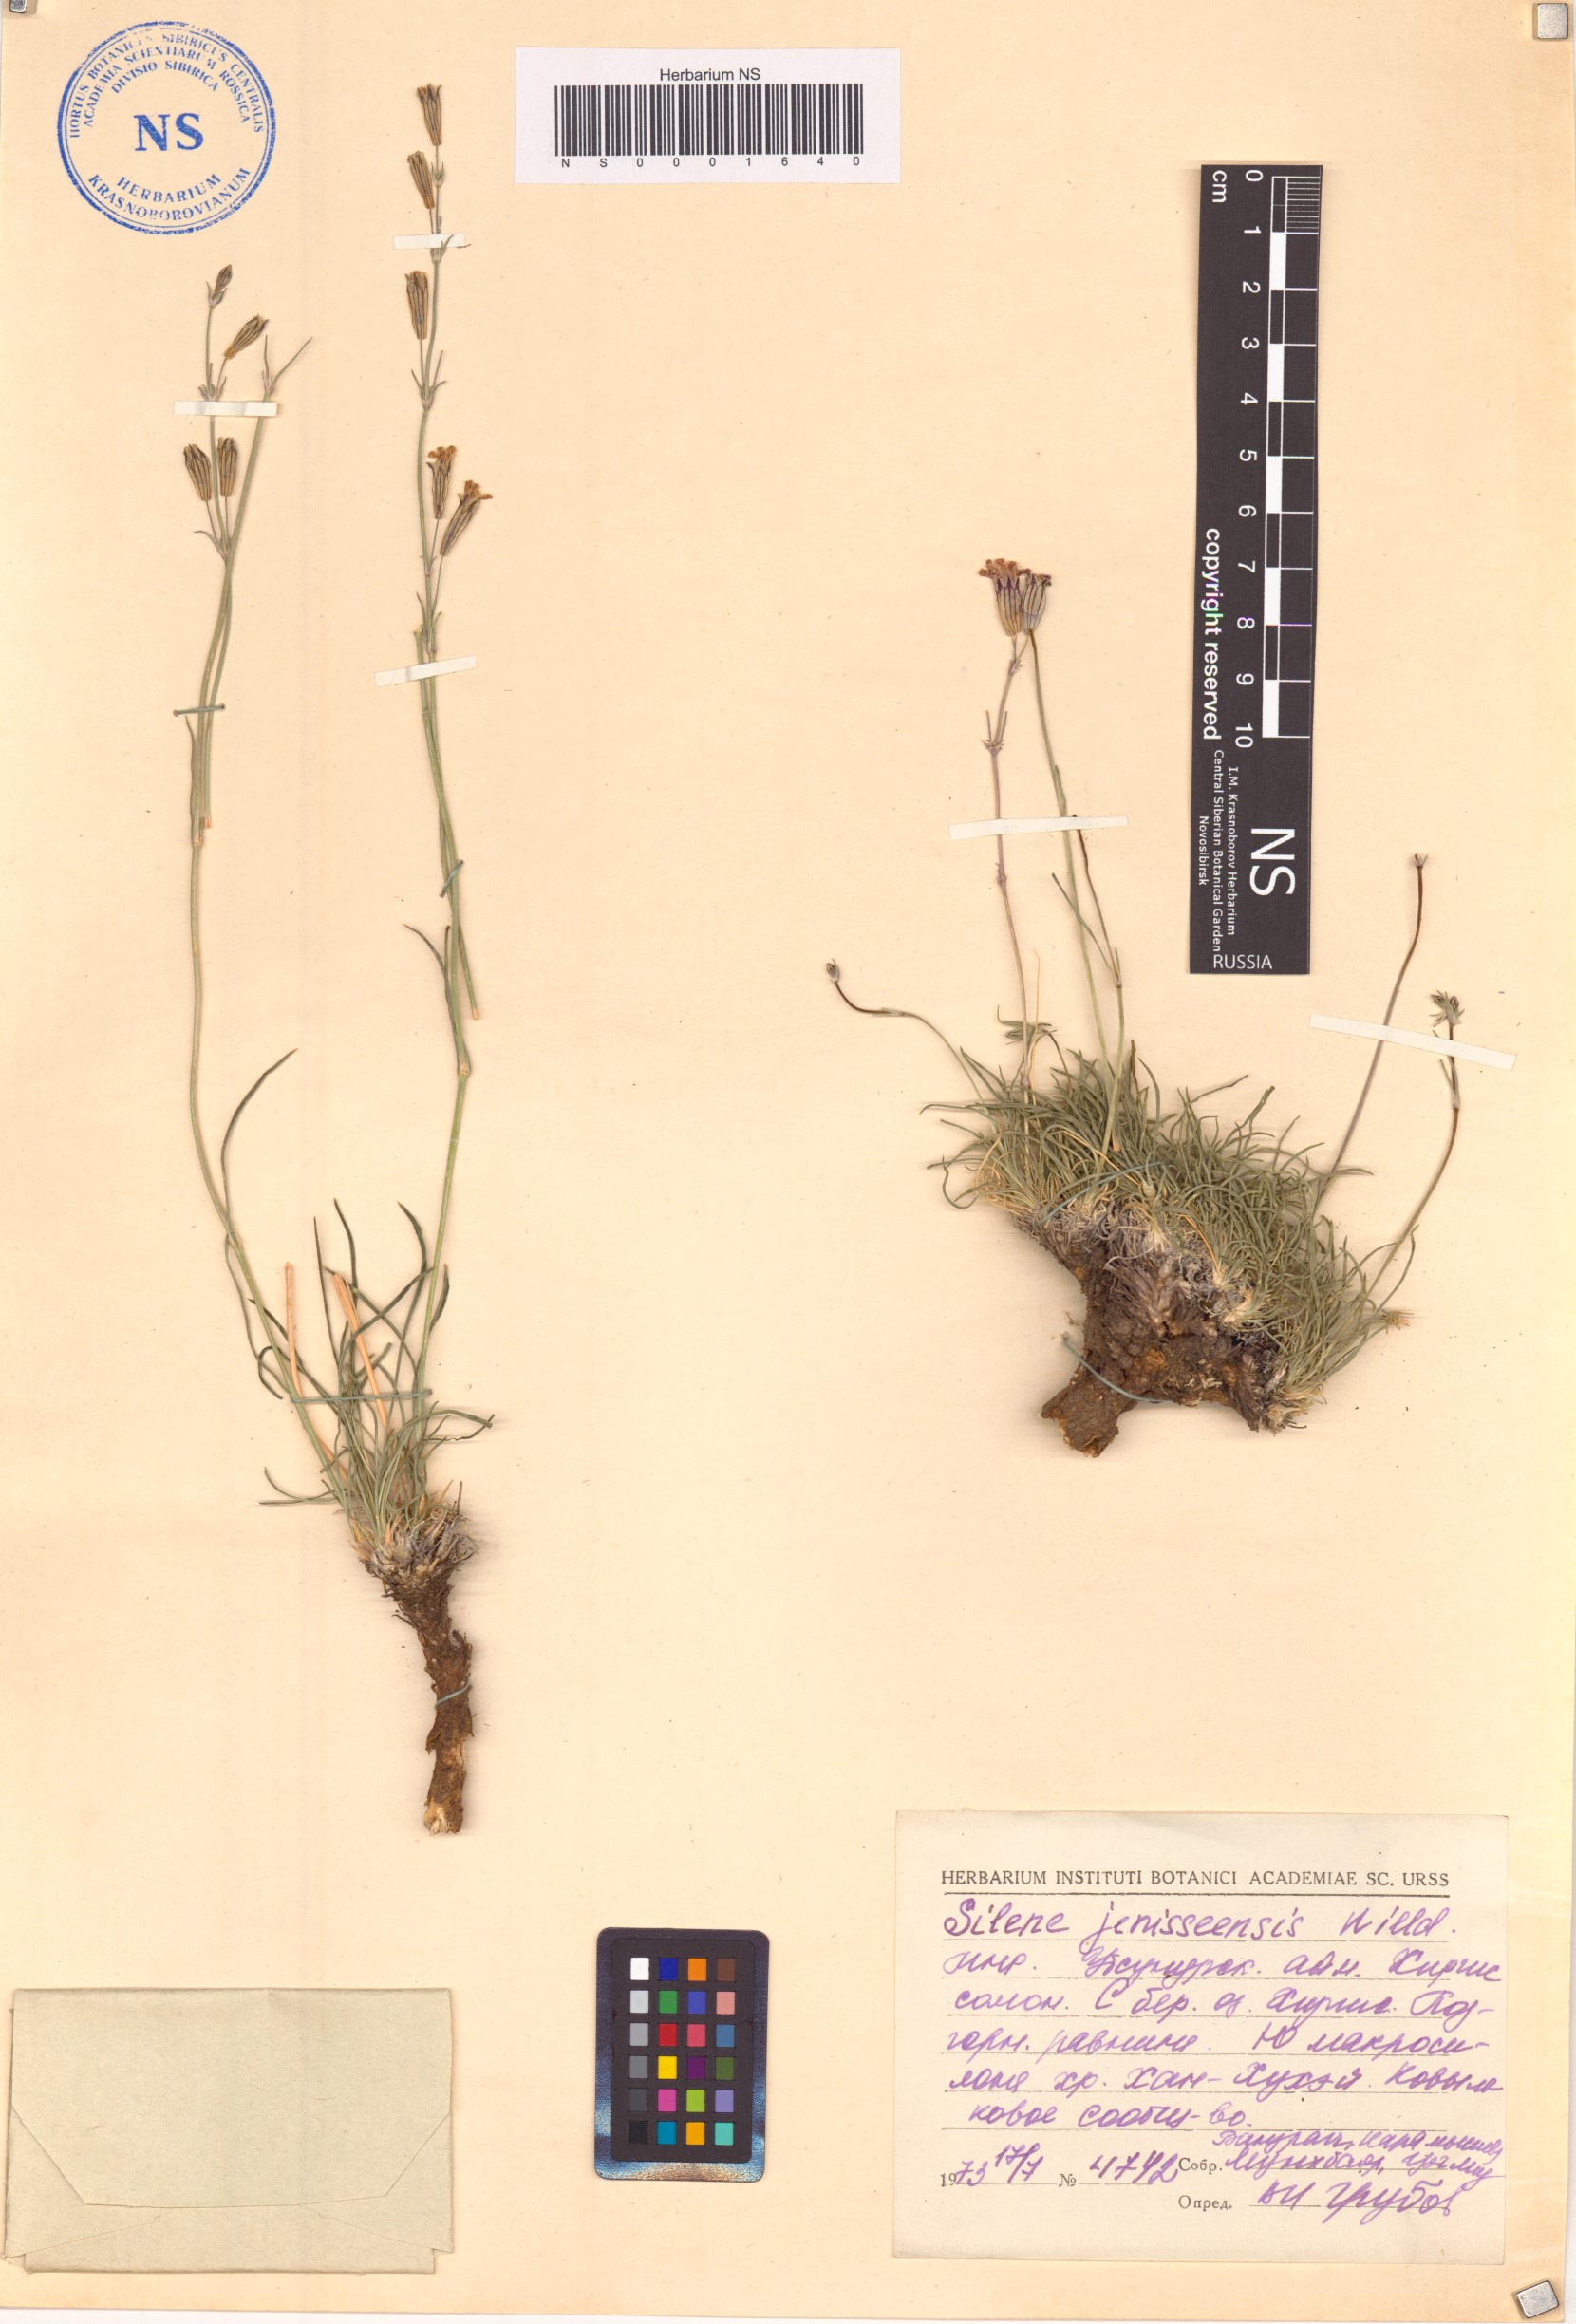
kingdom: Plantae
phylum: Tracheophyta
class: Magnoliopsida
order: Caryophyllales
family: Caryophyllaceae
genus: Silene
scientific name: Silene jeniseensis
